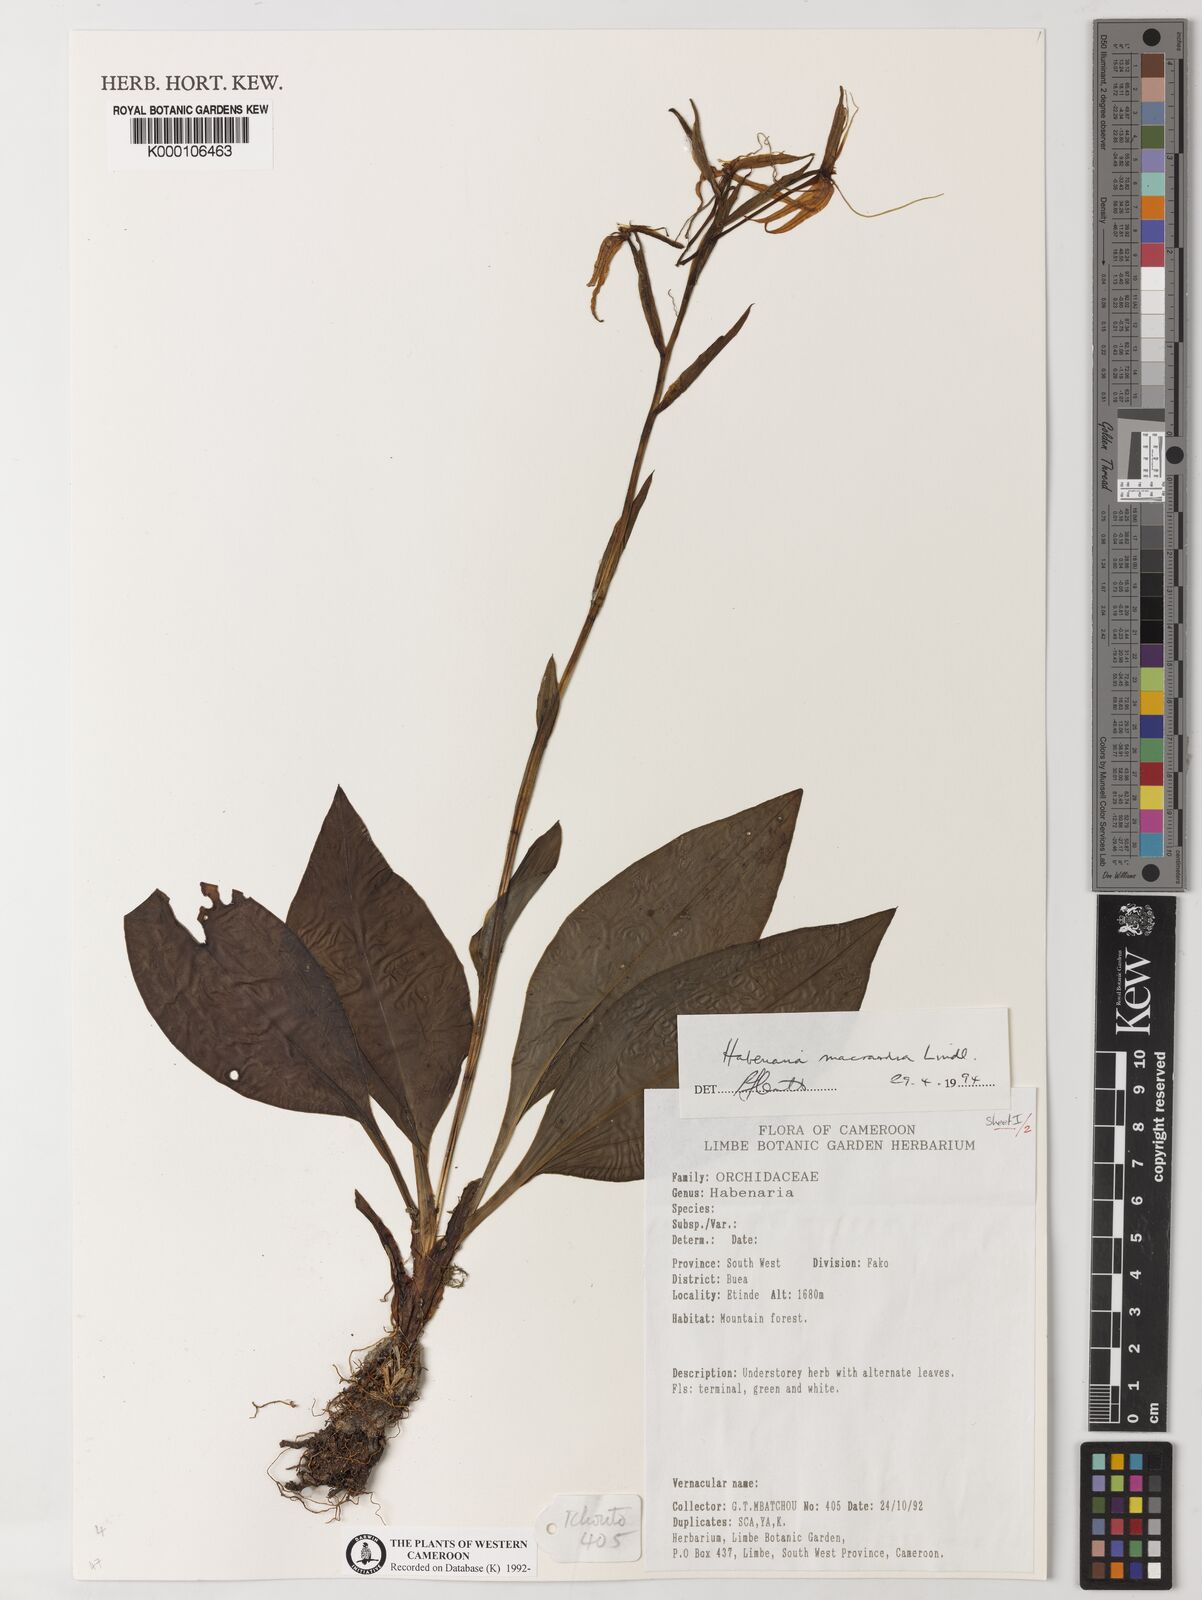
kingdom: Plantae
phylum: Tracheophyta
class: Liliopsida
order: Asparagales
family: Orchidaceae
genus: Habenaria
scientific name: Habenaria macrandra
